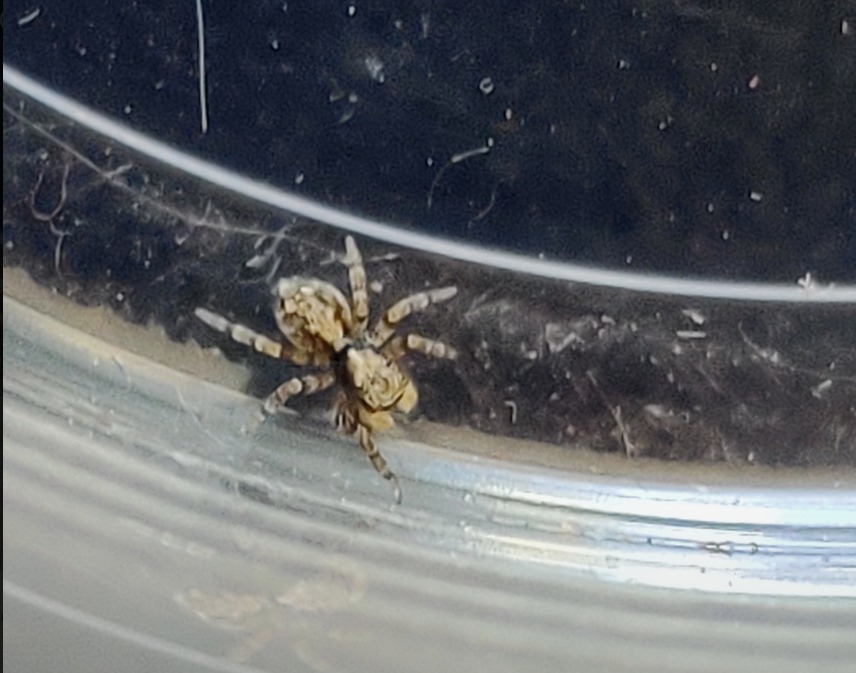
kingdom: Animalia
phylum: Arthropoda
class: Arachnida
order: Araneae
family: Salticidae
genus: Pseudeuophrys
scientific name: Pseudeuophrys lanigera
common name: Vinduesspringer
